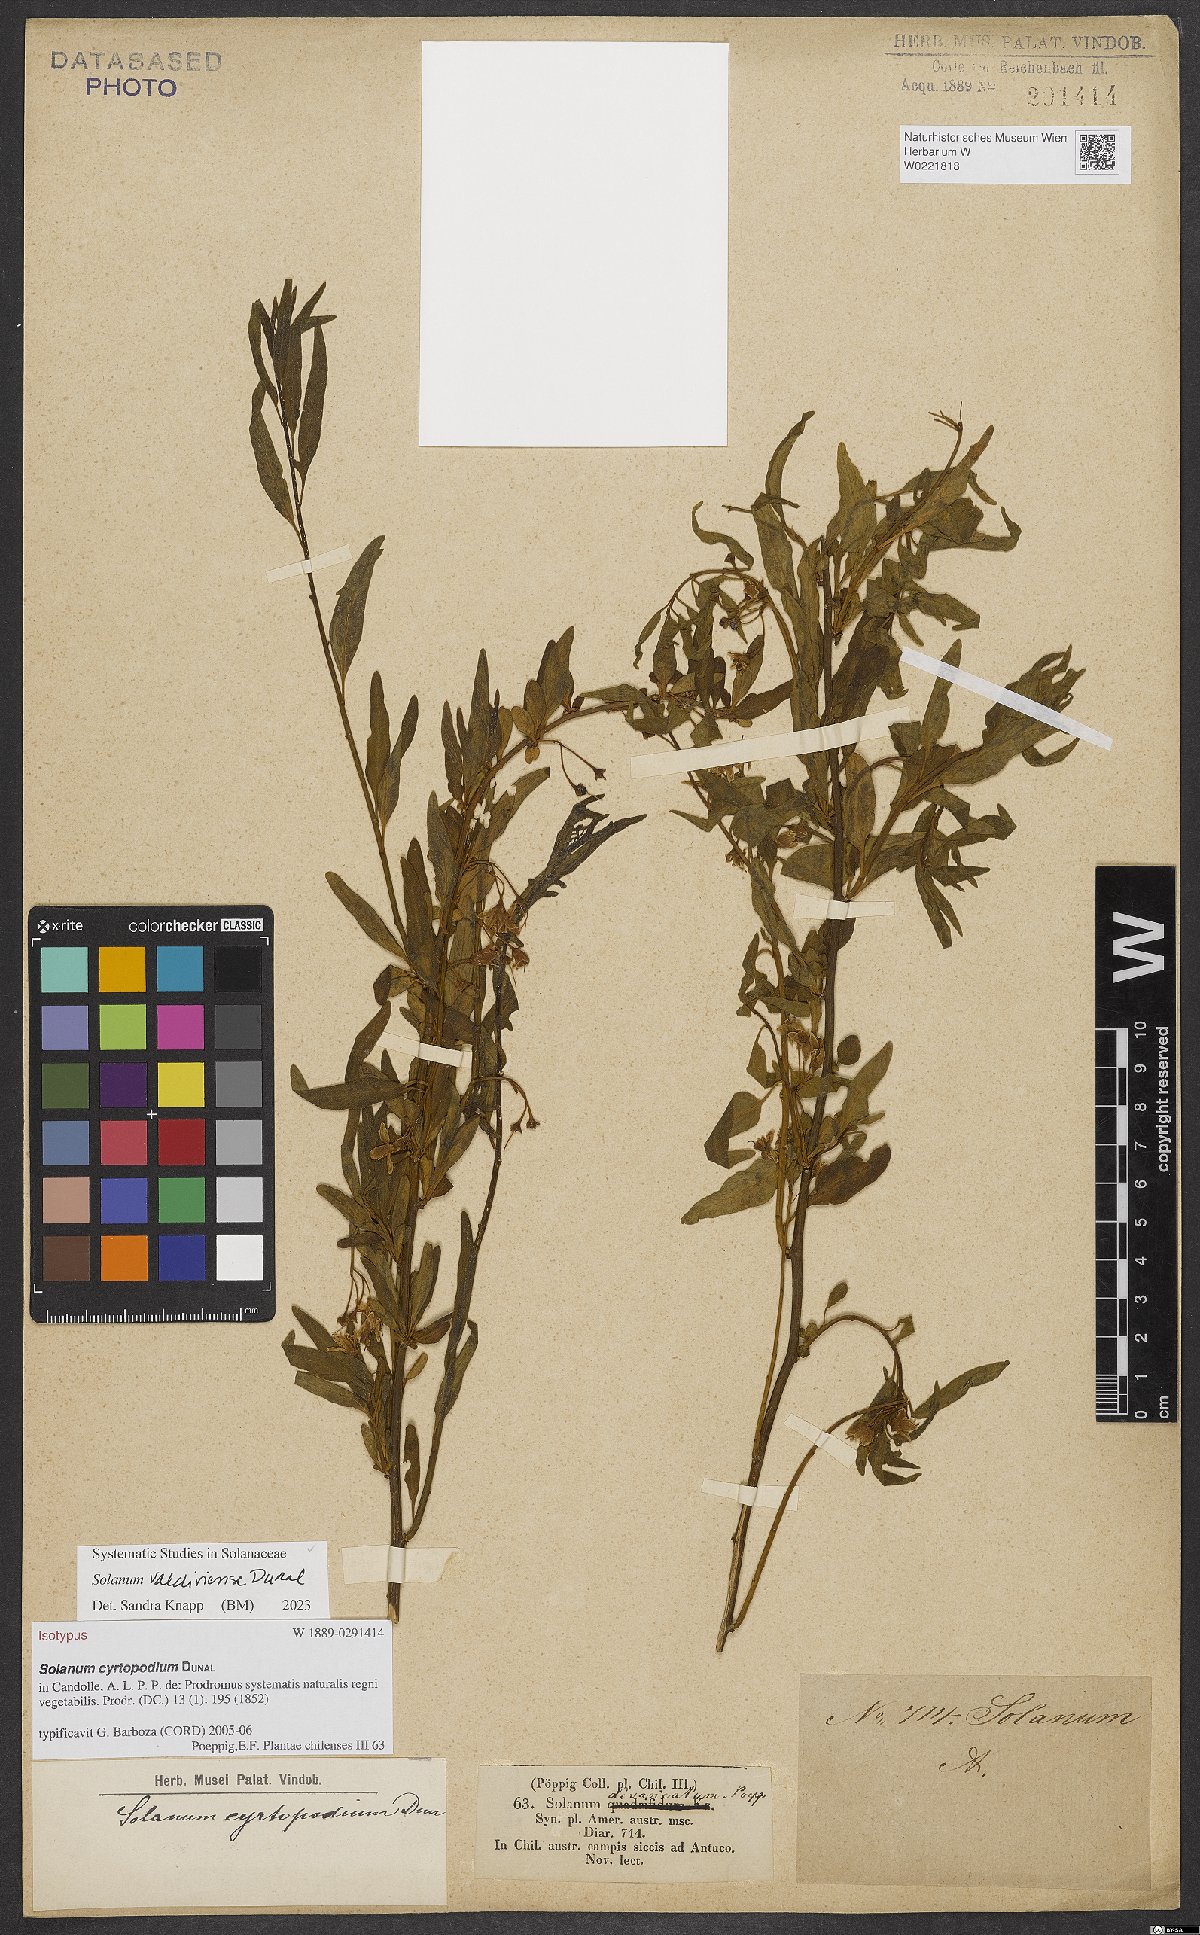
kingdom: Plantae
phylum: Tracheophyta
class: Magnoliopsida
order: Solanales
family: Solanaceae
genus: Solanum
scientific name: Solanum valdiviense
